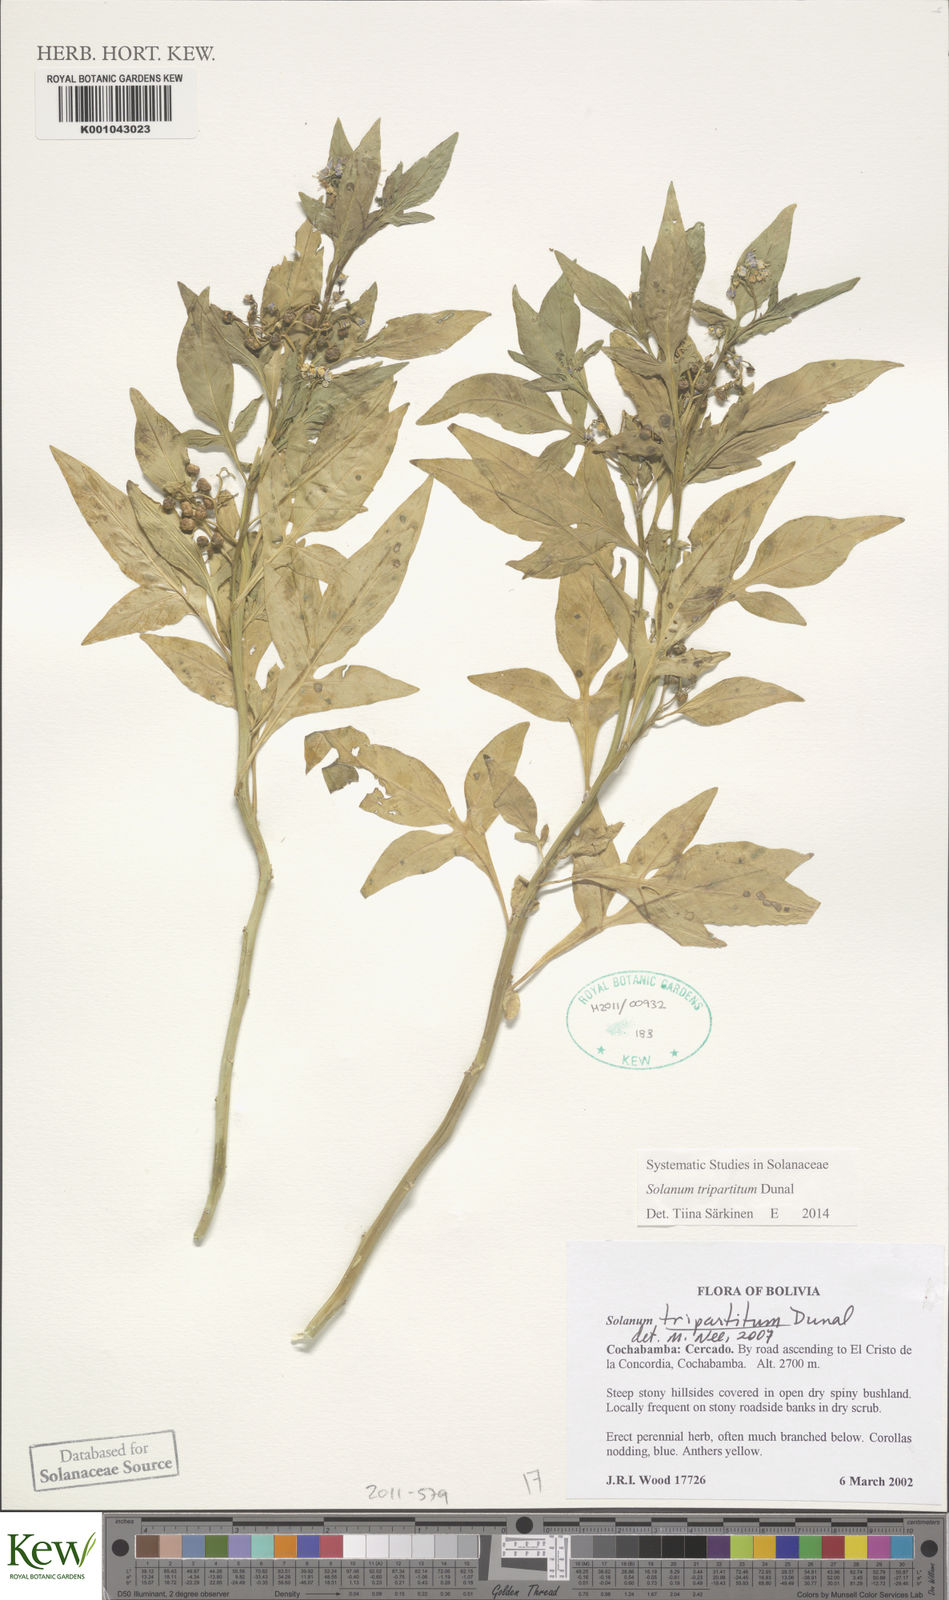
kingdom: Plantae
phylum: Tracheophyta
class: Magnoliopsida
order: Solanales
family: Solanaceae
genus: Solanum
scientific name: Solanum tripartitum
